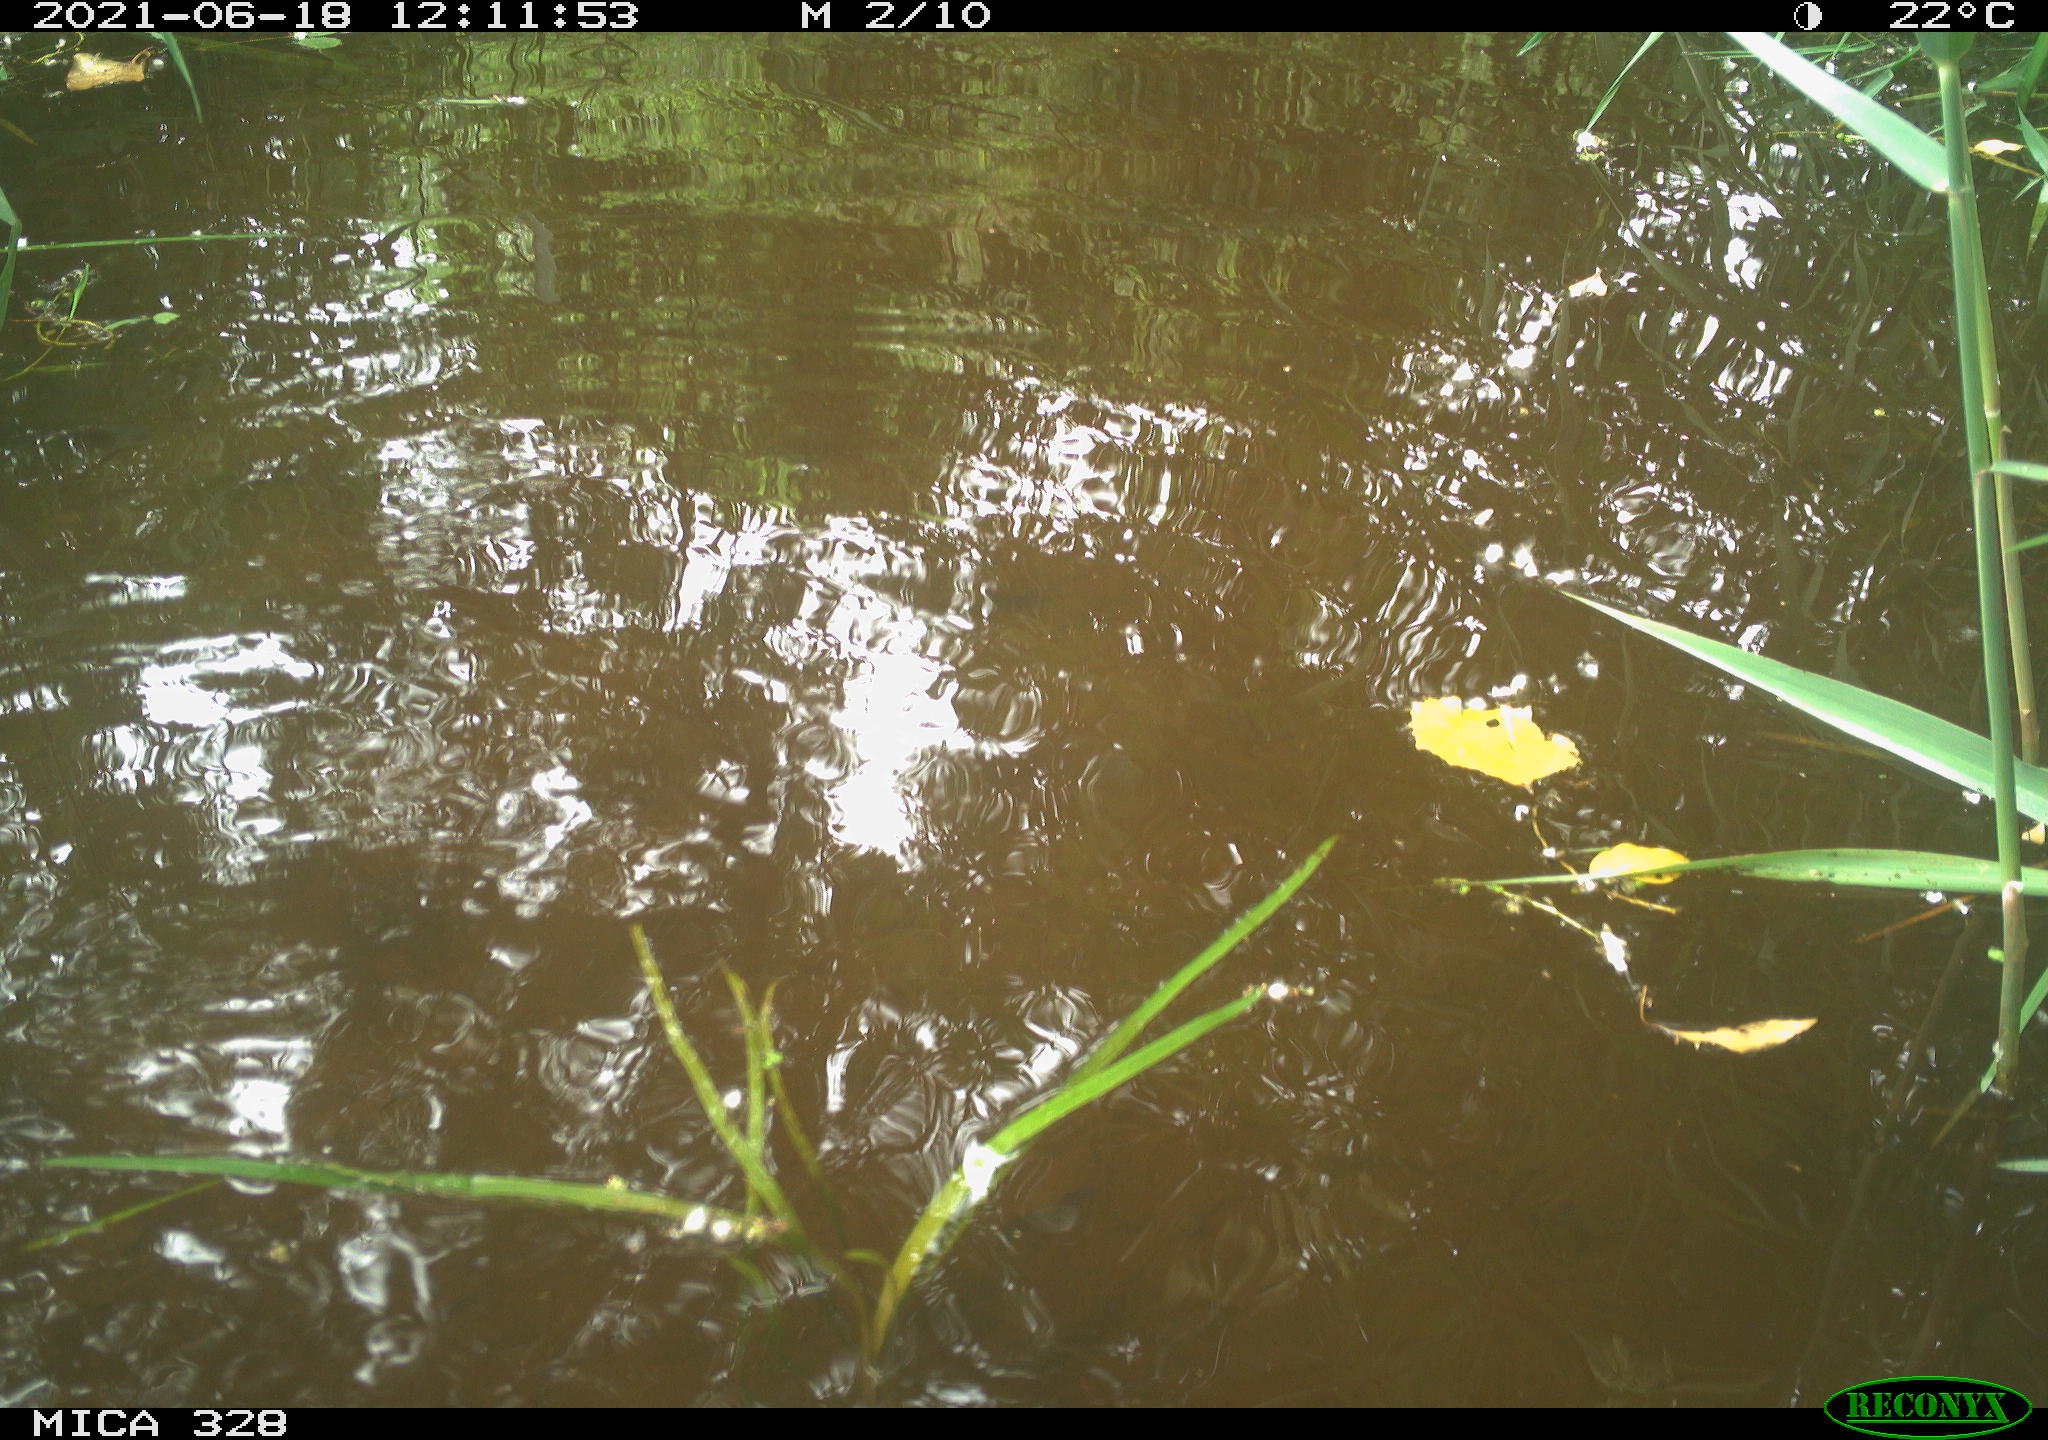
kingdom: Animalia
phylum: Chordata
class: Aves
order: Anseriformes
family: Anatidae
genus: Aix
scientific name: Aix galericulata
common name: Mandarin duck
